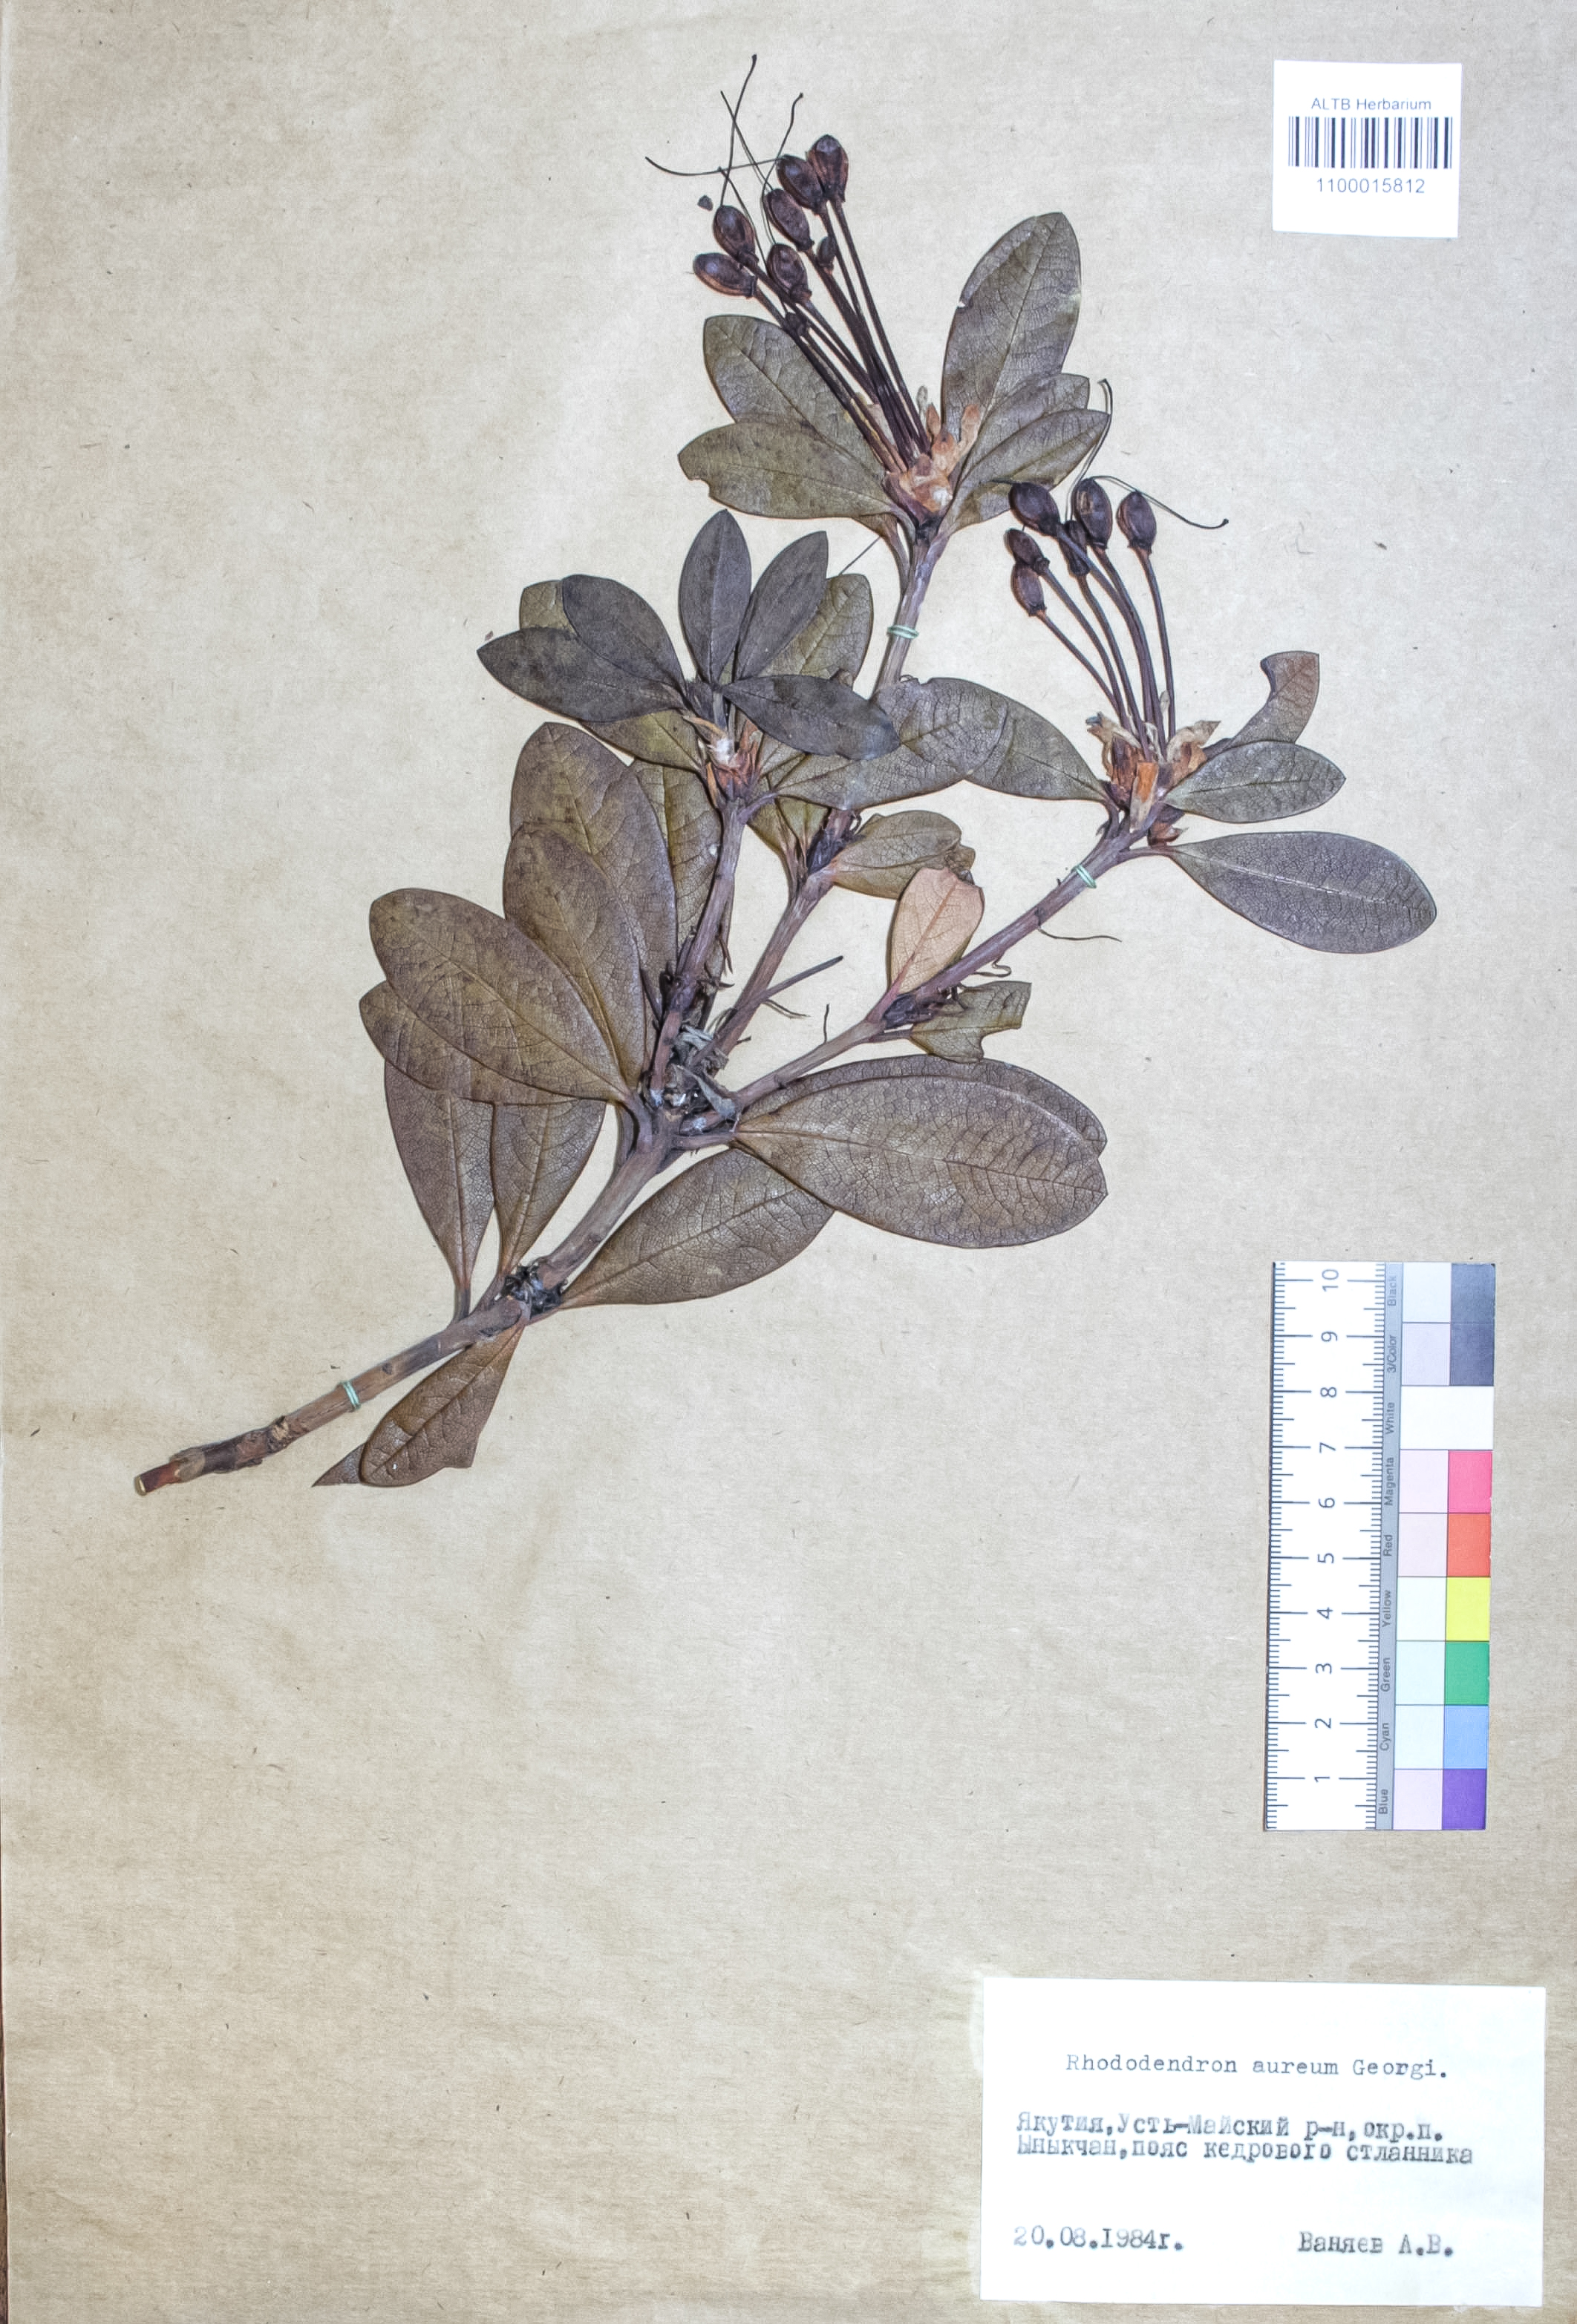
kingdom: Plantae
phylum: Tracheophyta
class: Magnoliopsida
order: Ericales
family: Ericaceae
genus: Rhododendron
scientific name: Rhododendron aureum
